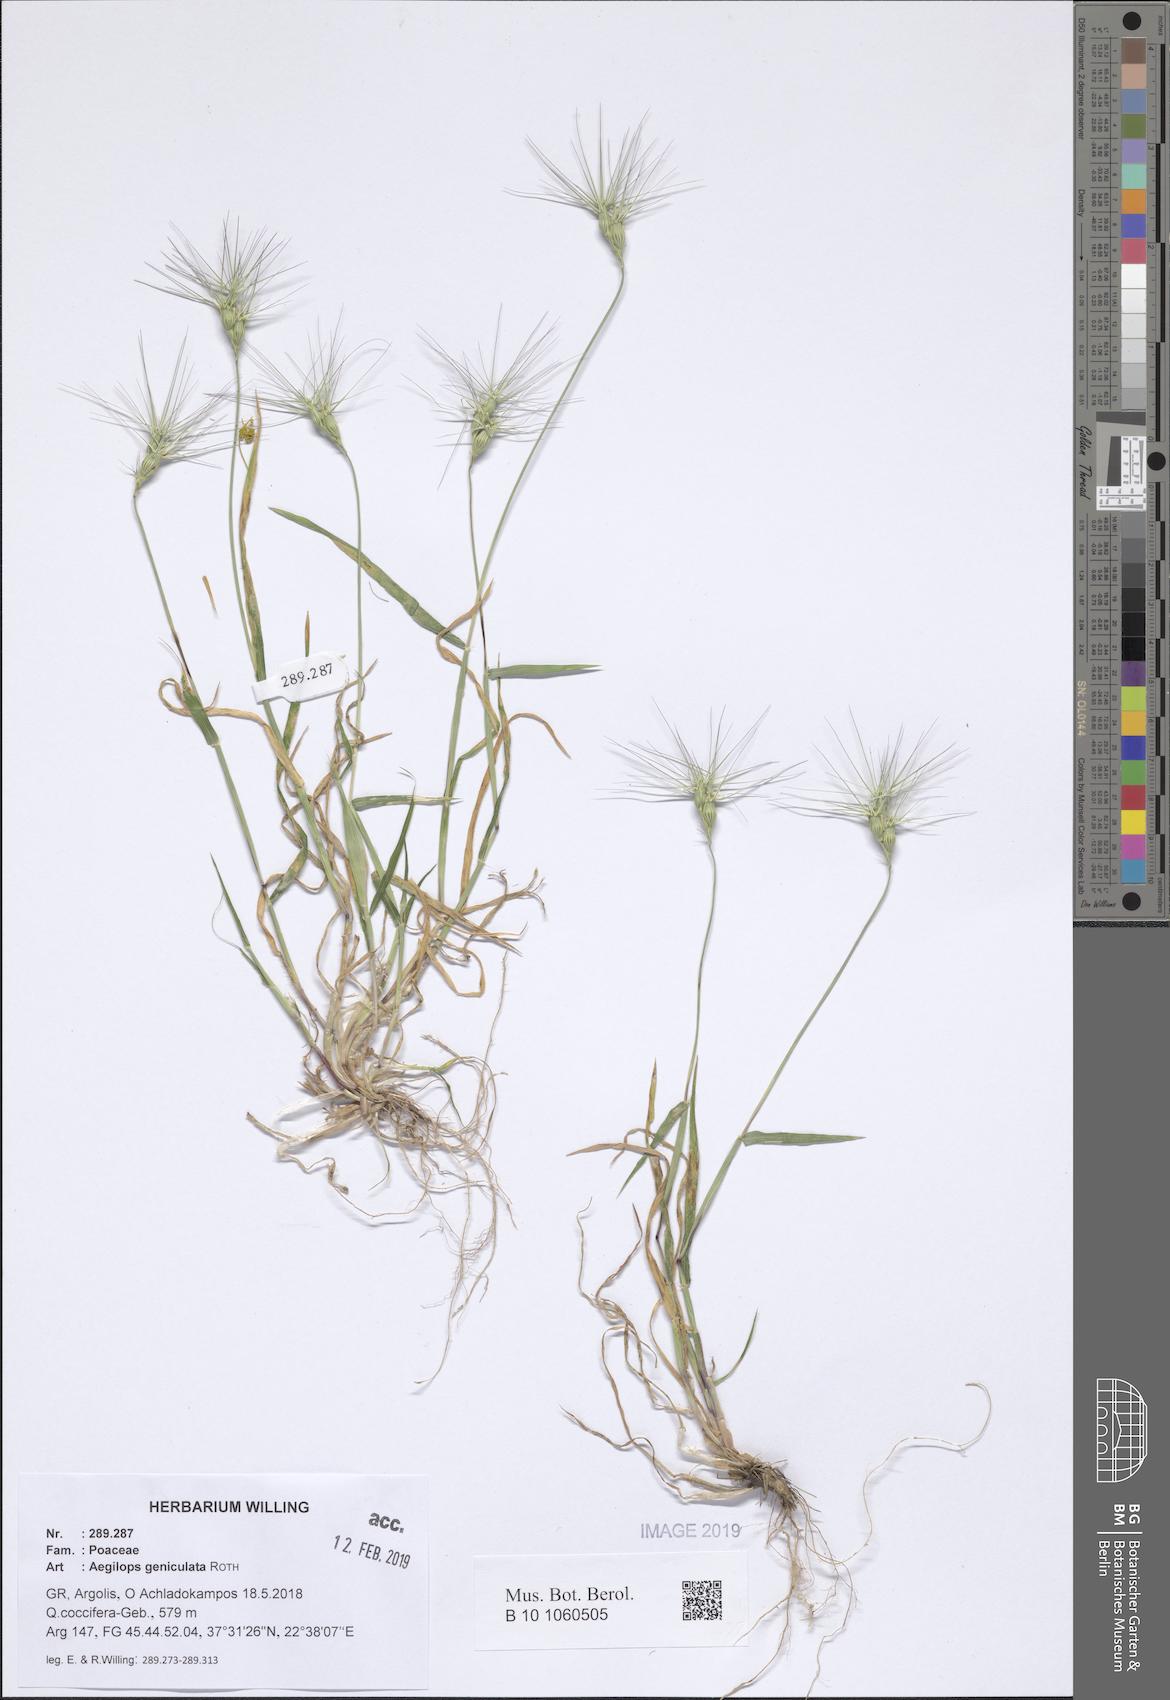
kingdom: Plantae
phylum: Tracheophyta
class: Liliopsida
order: Poales
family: Poaceae
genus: Aegilops
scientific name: Aegilops geniculata
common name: Ovate goat grass
